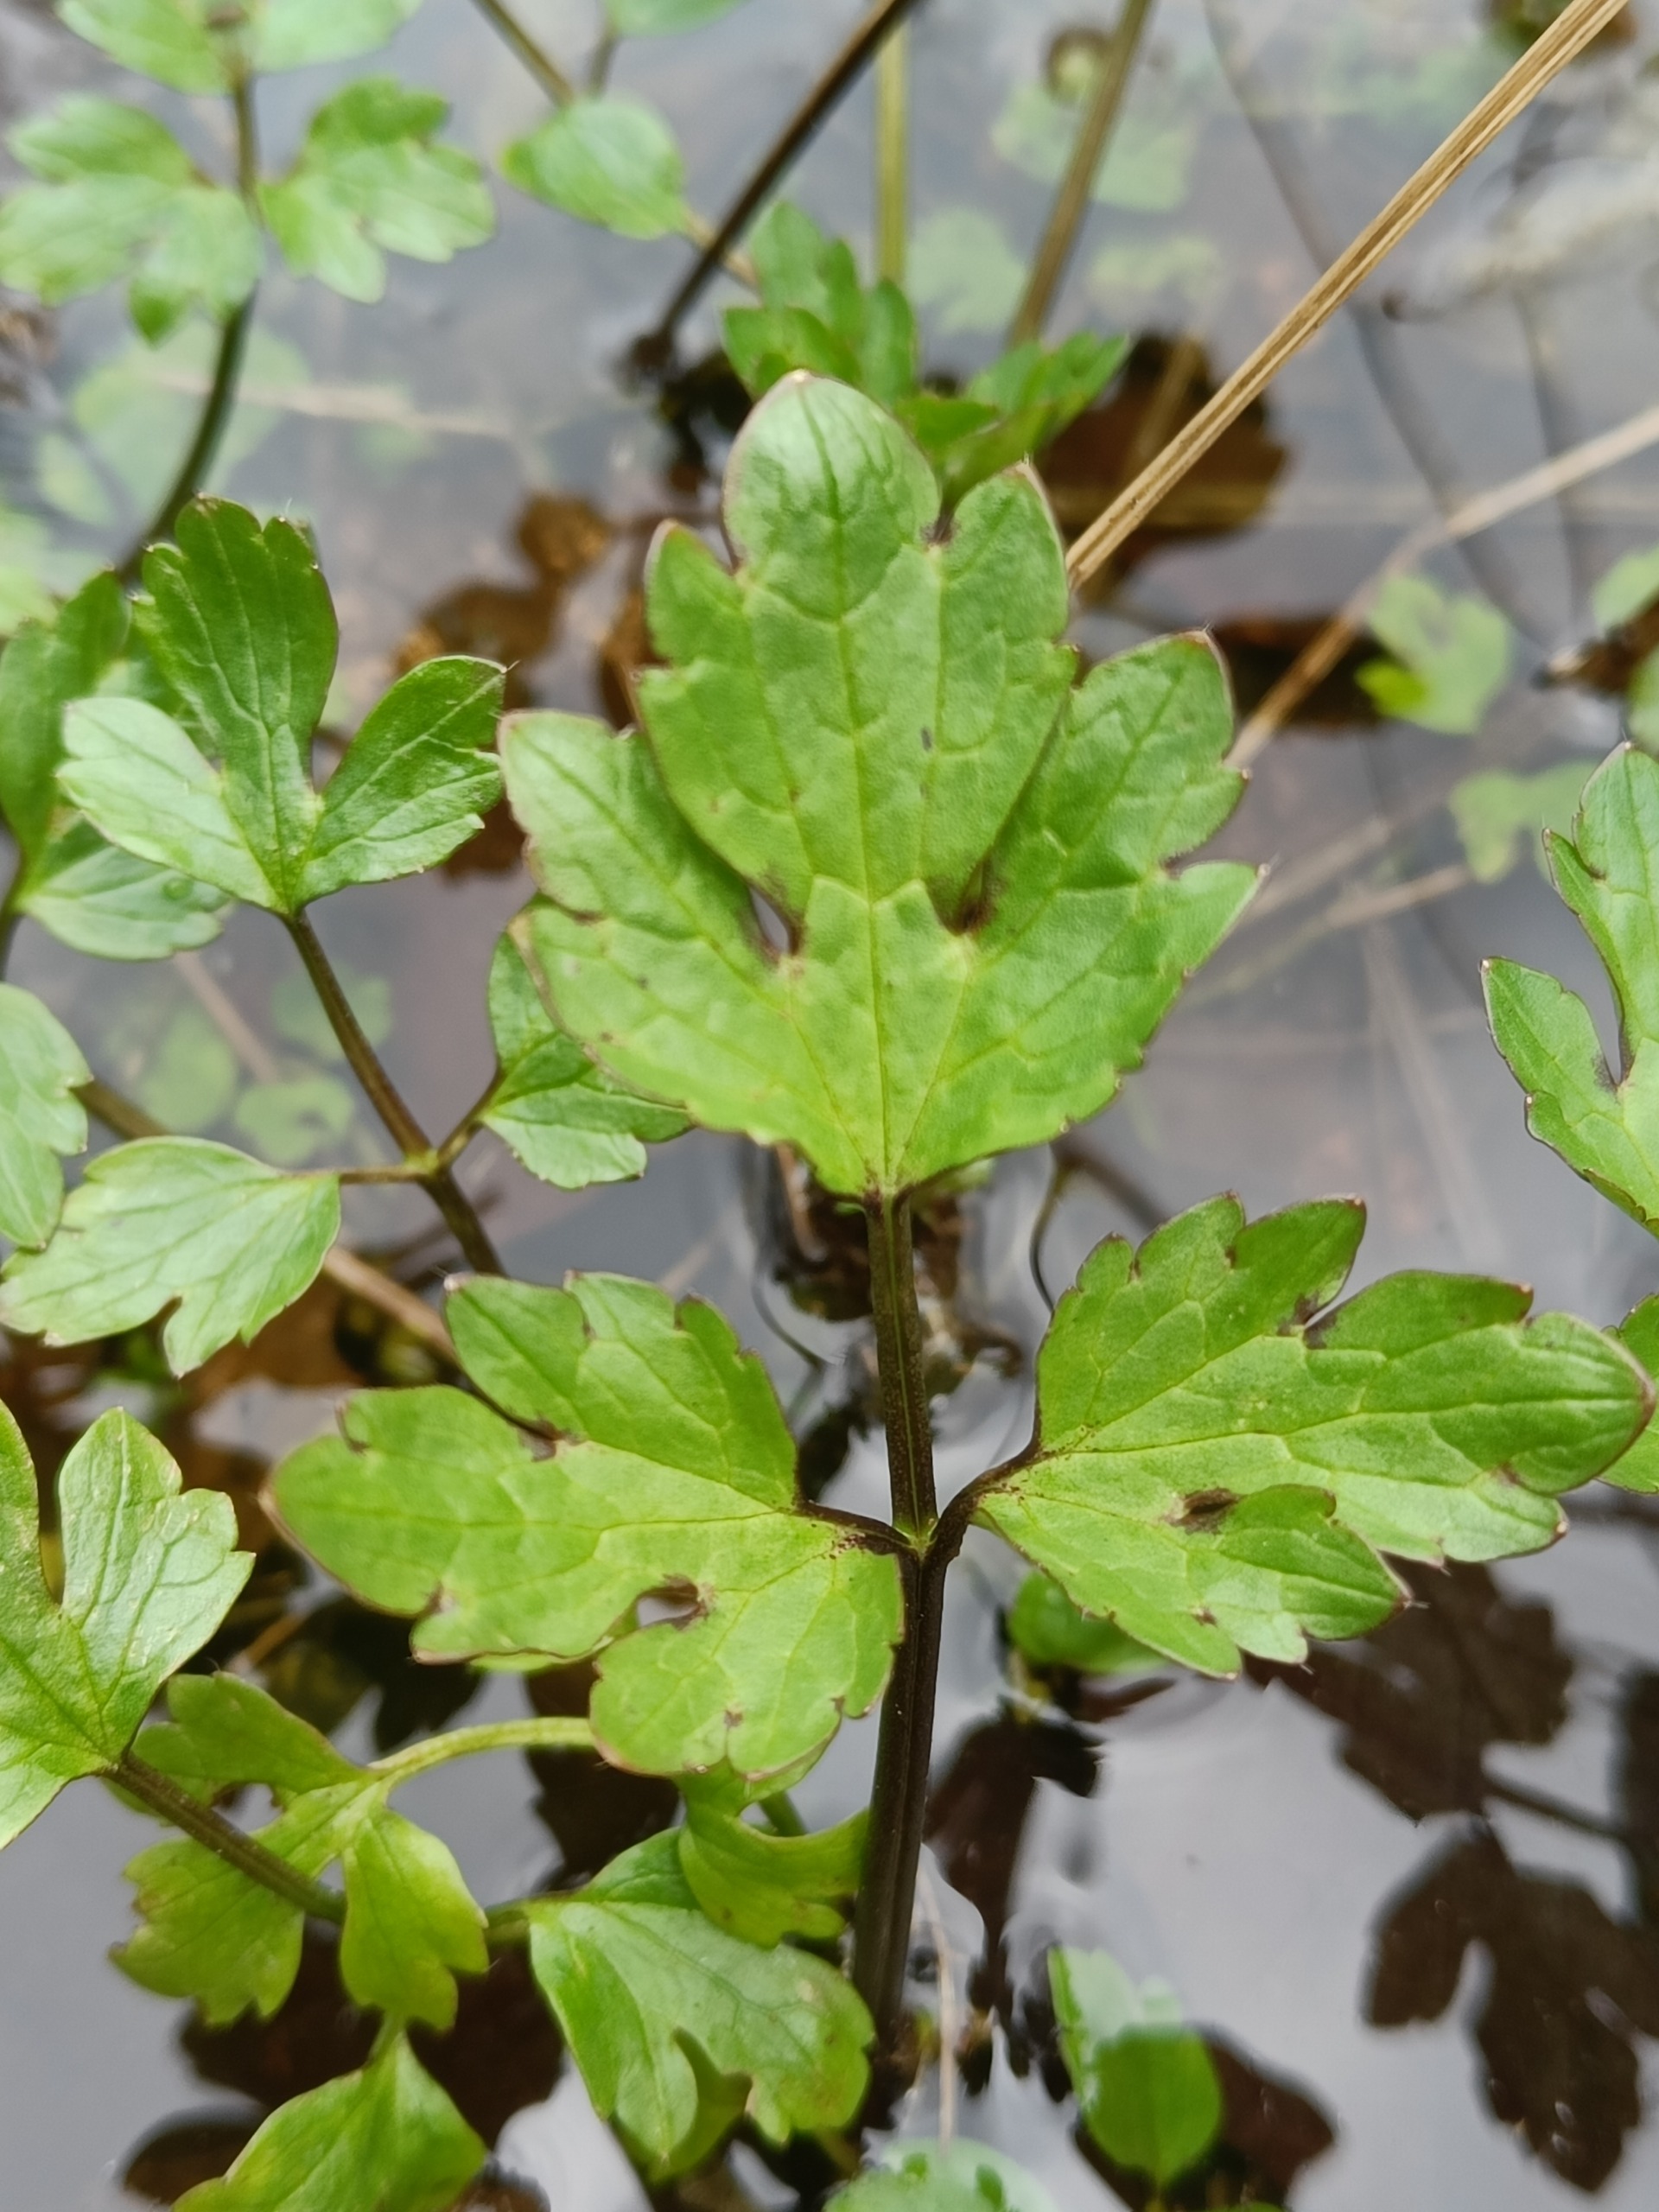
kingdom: Plantae
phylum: Tracheophyta
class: Magnoliopsida
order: Ranunculales
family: Ranunculaceae
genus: Ranunculus
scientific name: Ranunculus repens
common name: Lav ranunkel
